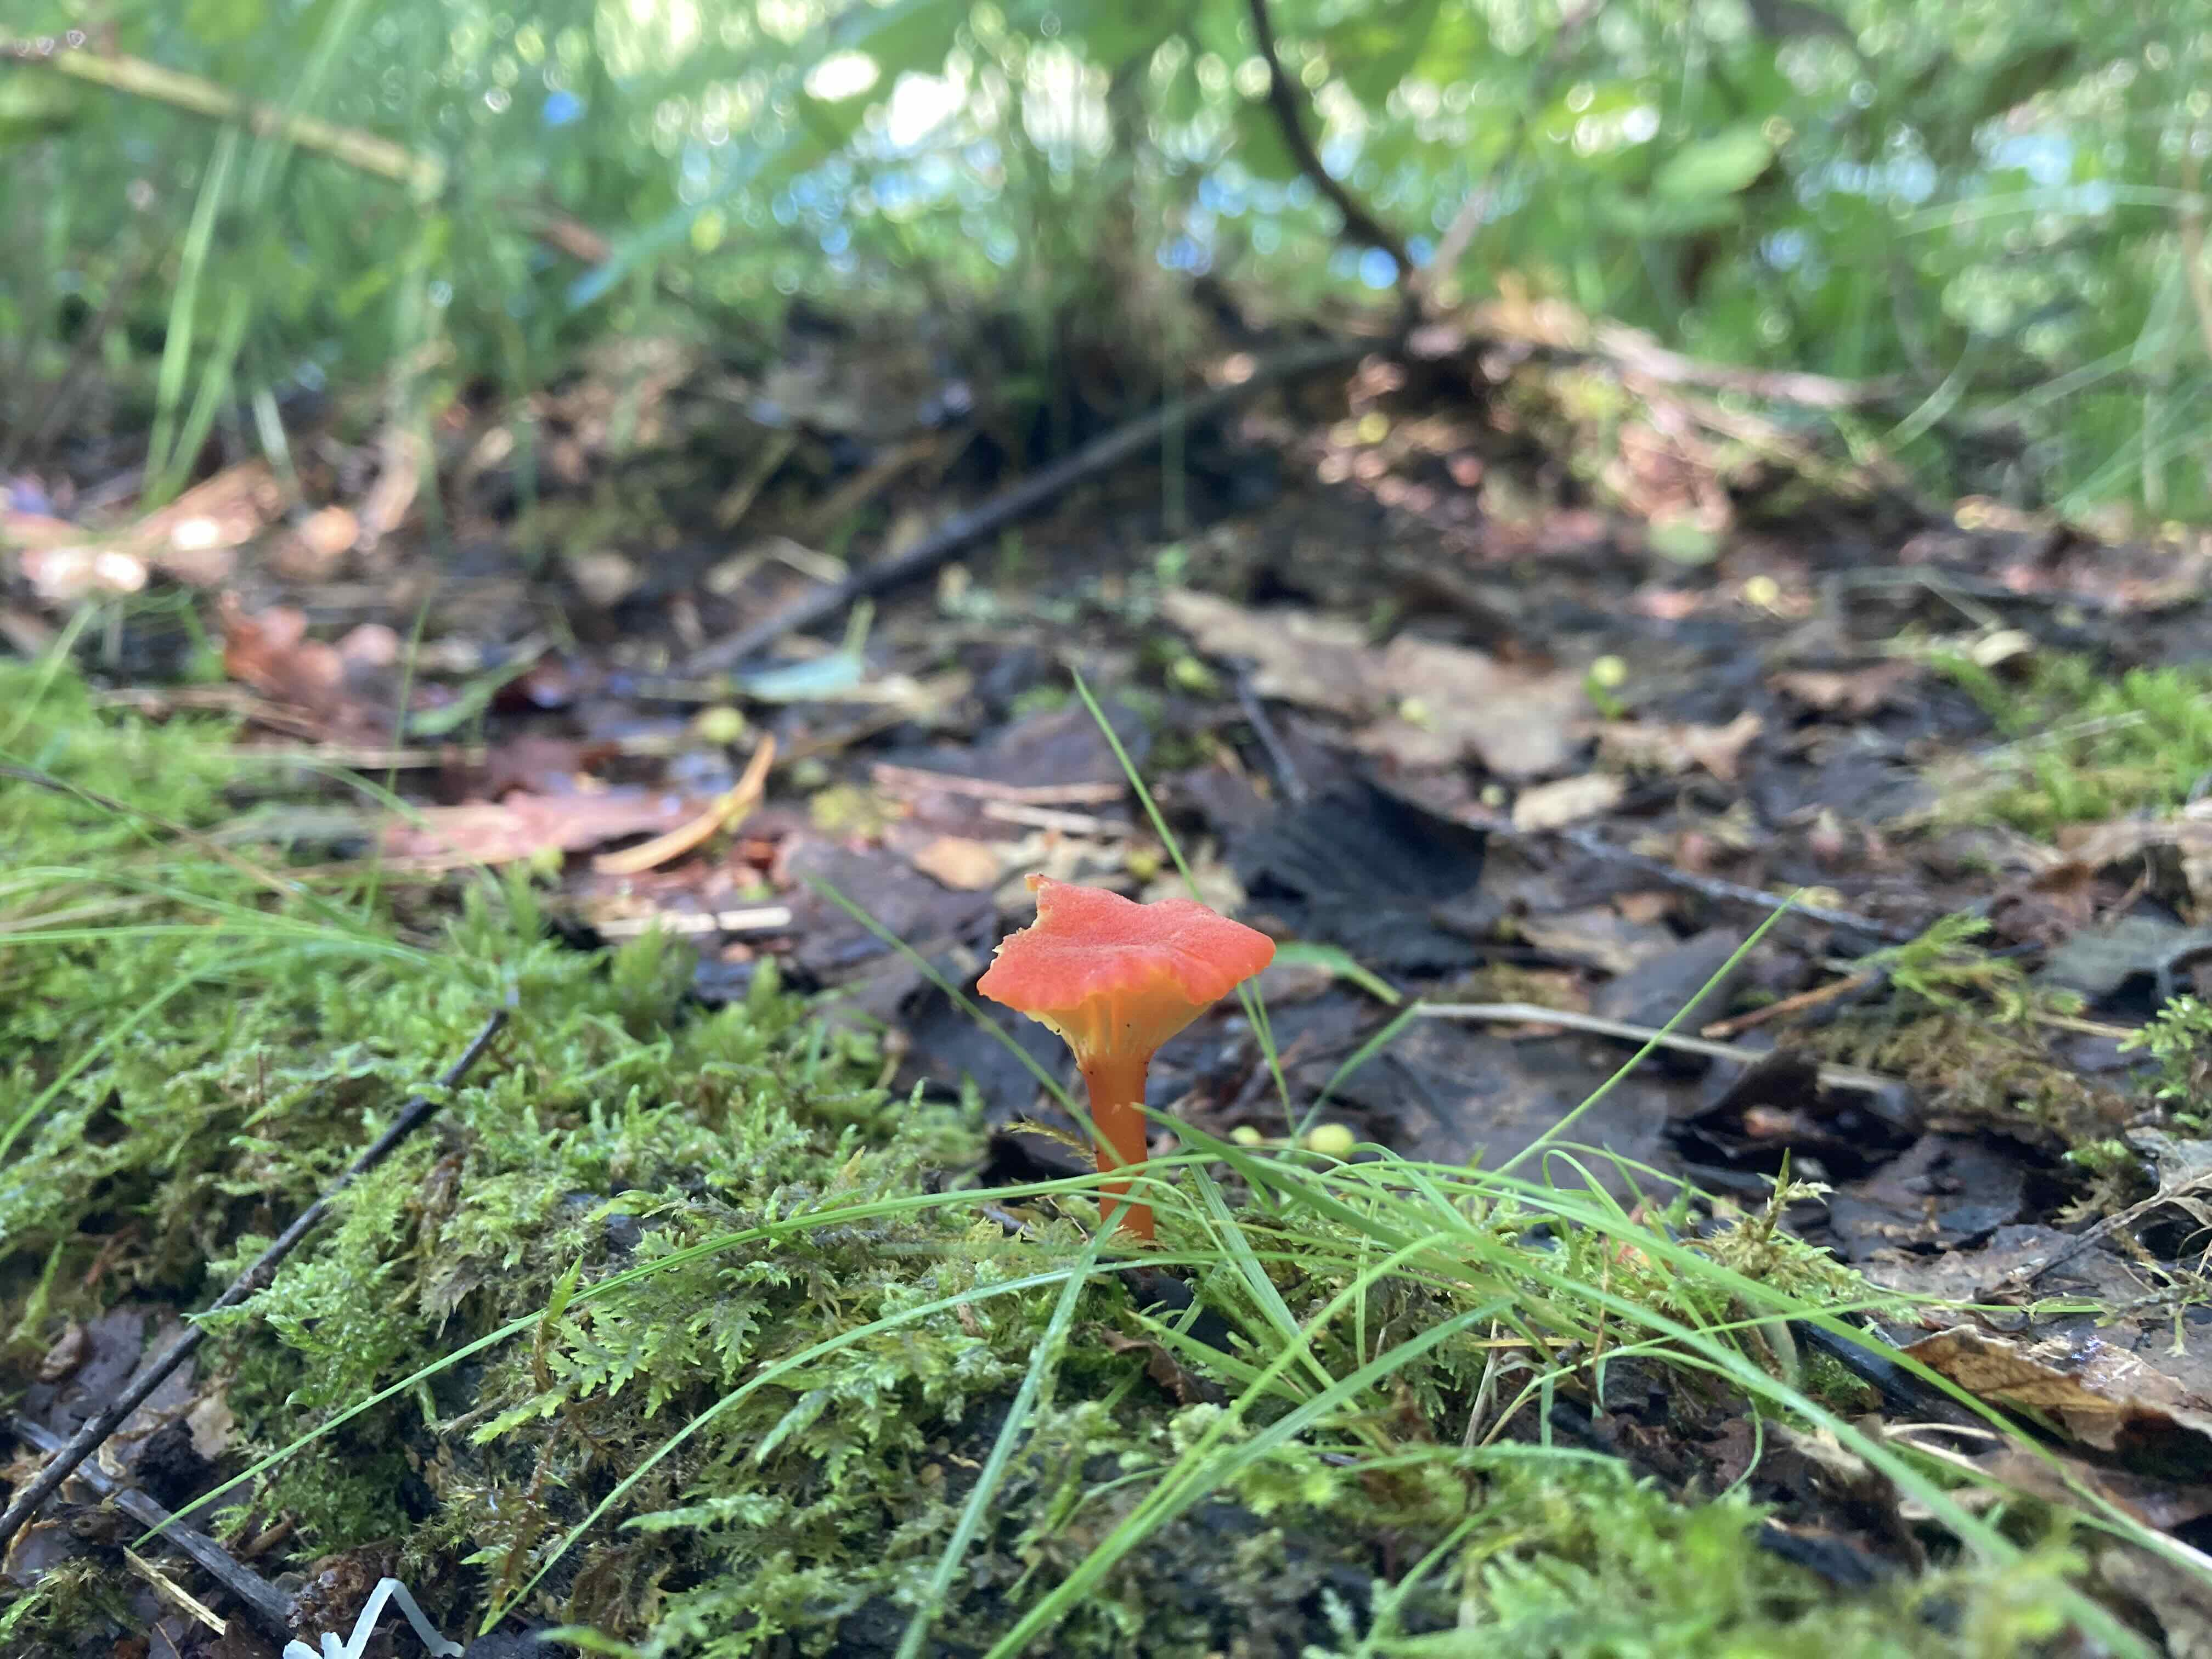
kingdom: Fungi
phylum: Basidiomycota
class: Agaricomycetes
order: Agaricales
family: Hygrophoraceae
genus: Hygrocybe
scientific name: Hygrocybe cantharellus
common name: kantarel-vokshat
